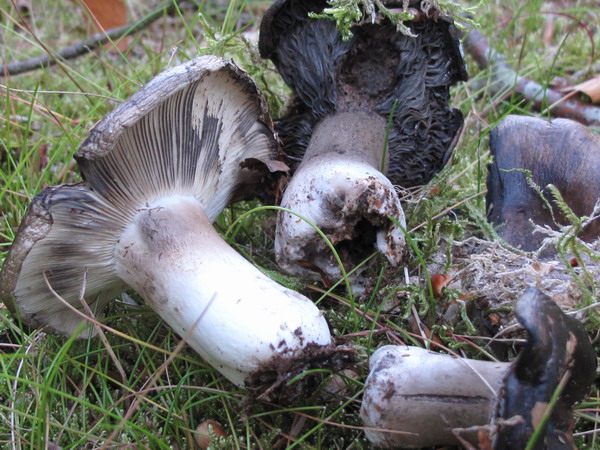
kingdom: Fungi
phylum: Basidiomycota
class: Agaricomycetes
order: Russulales
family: Russulaceae
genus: Russula
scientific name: Russula anthracina
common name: kul-skørhat
